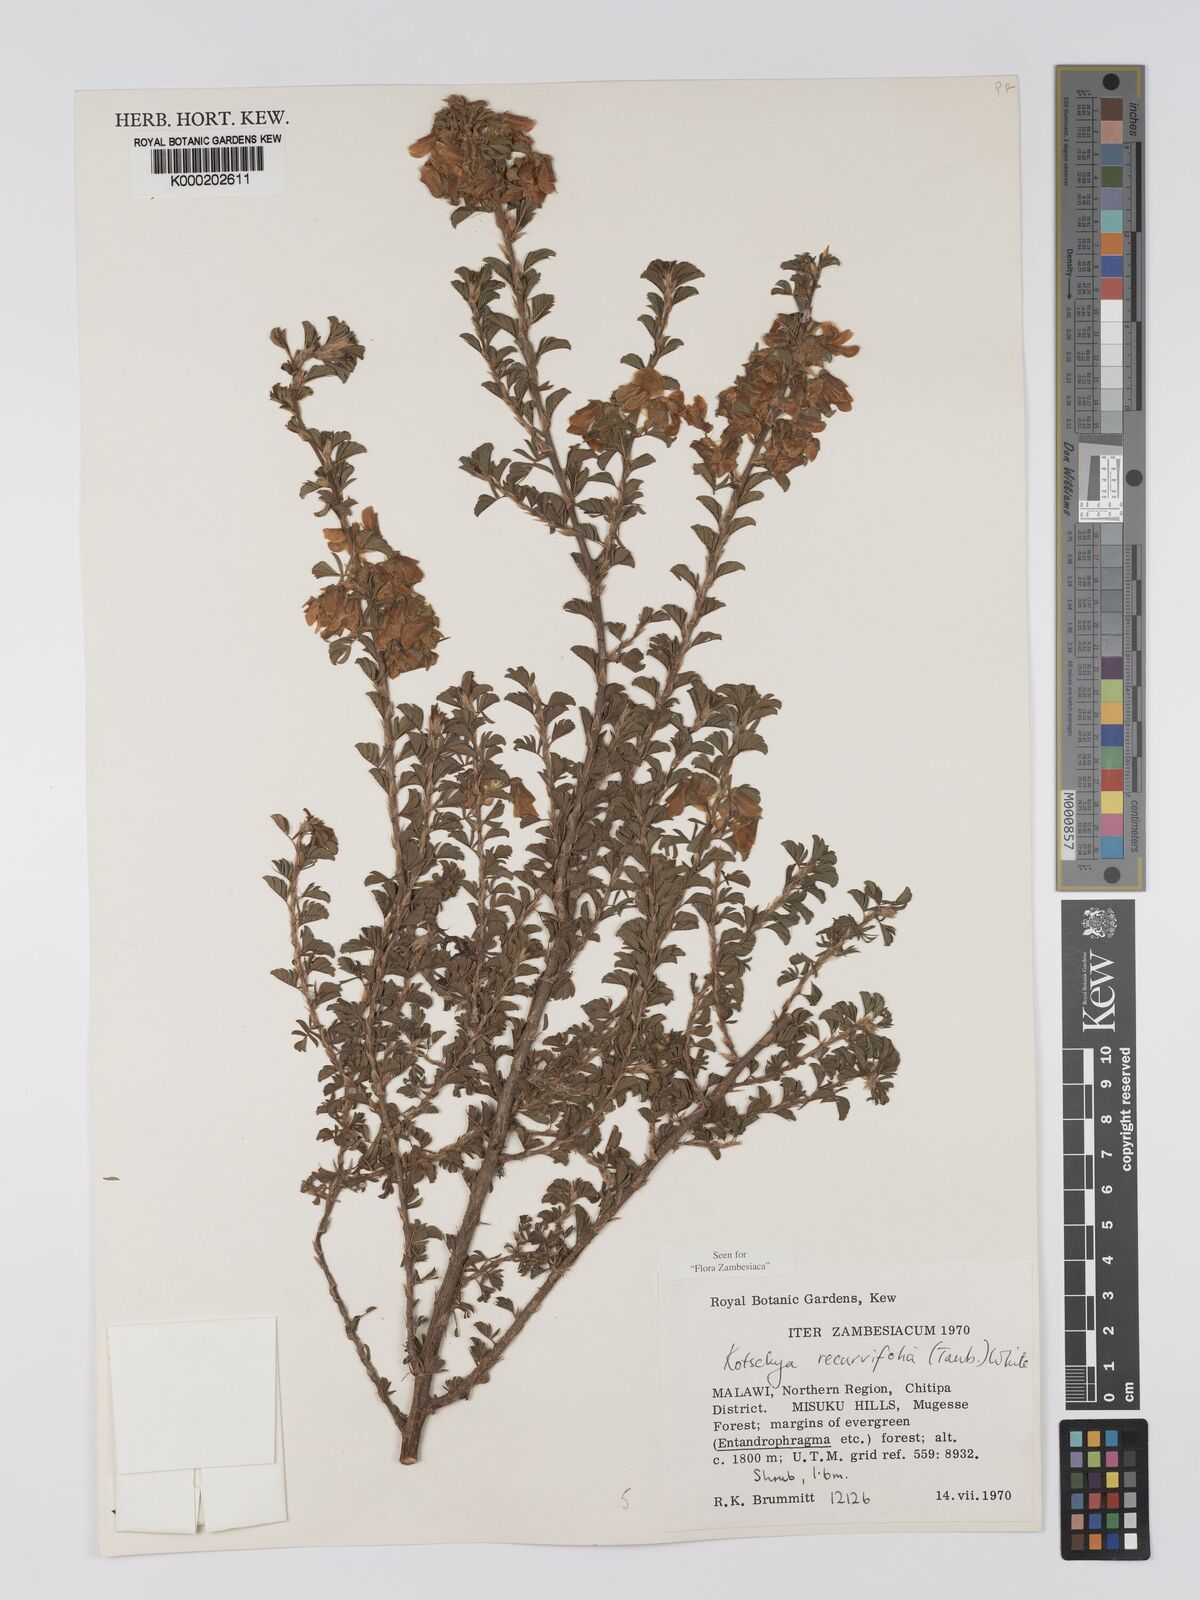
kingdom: Plantae
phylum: Tracheophyta
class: Magnoliopsida
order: Fabales
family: Fabaceae
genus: Kotschya
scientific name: Kotschya recurvifolia
